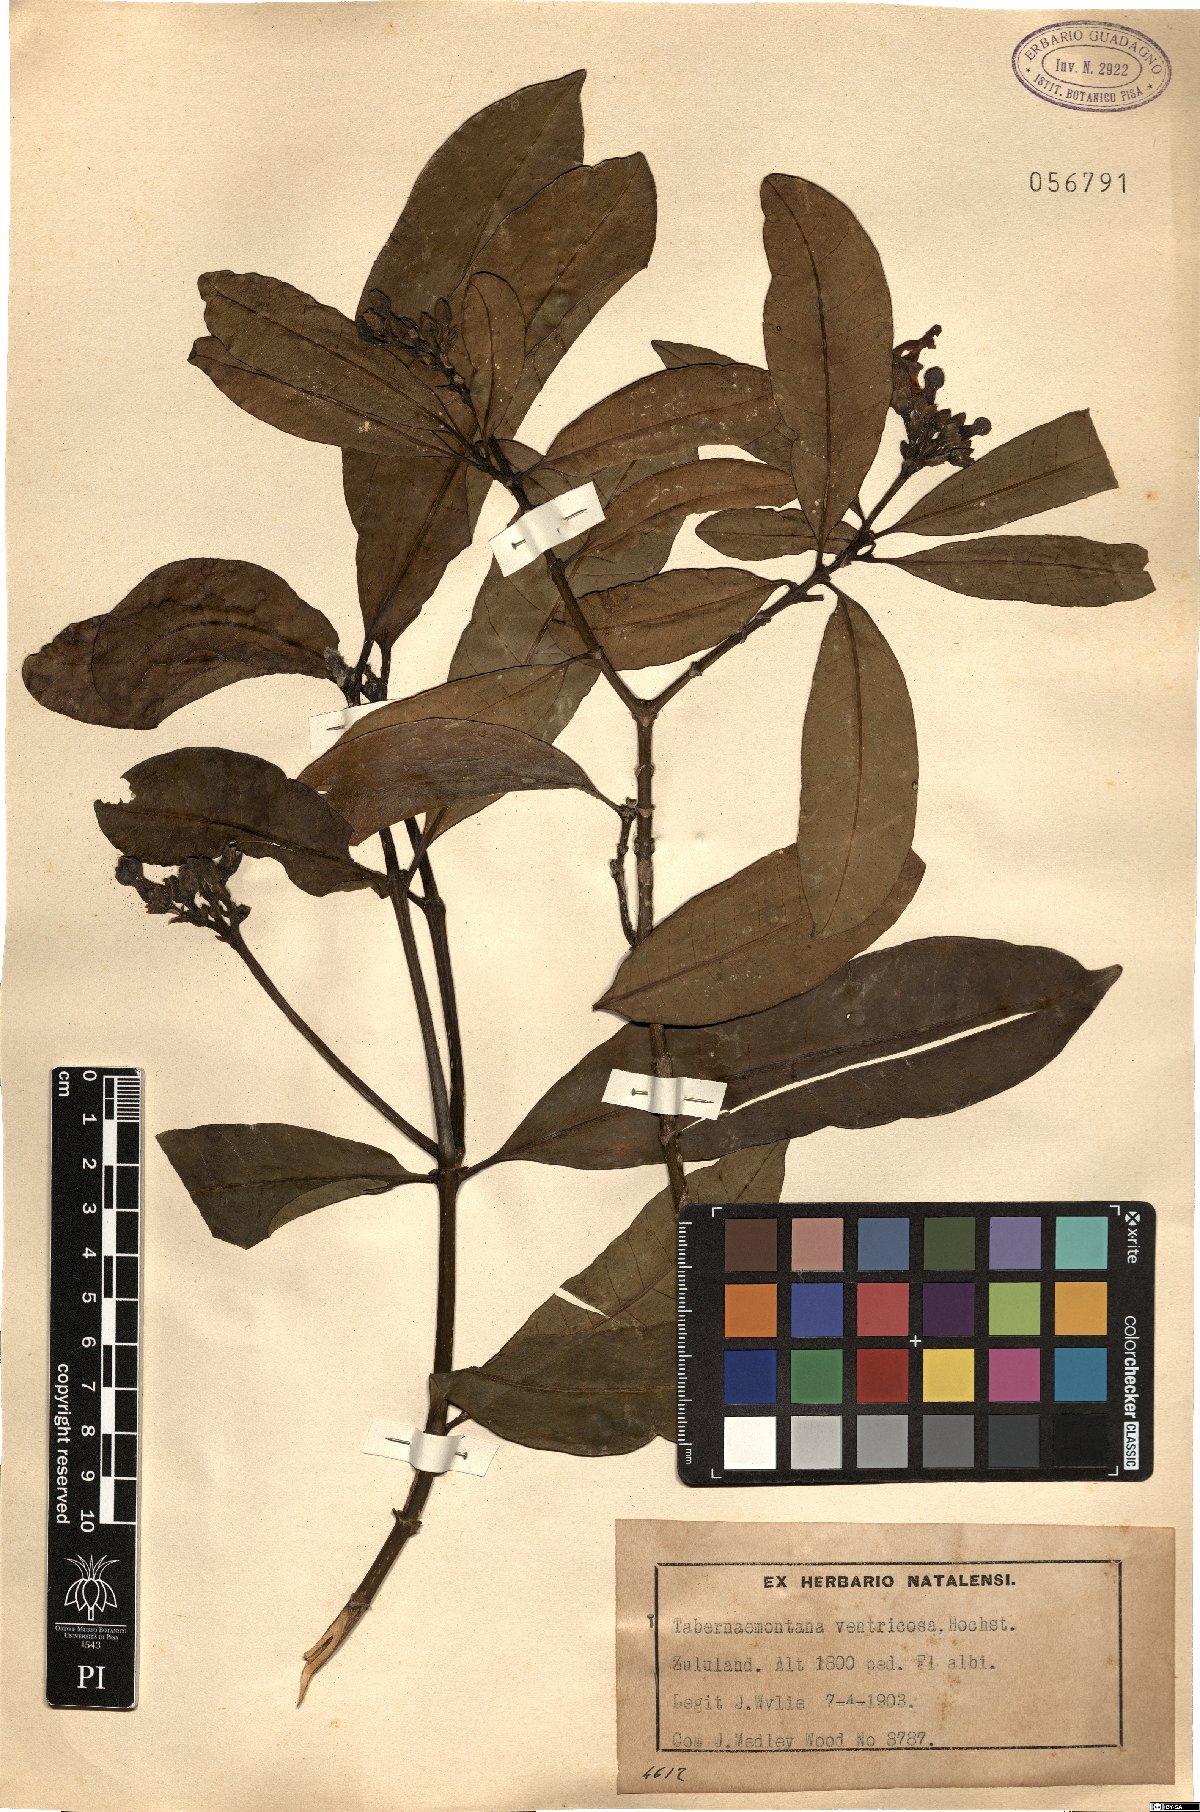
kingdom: Plantae
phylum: Tracheophyta
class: Magnoliopsida
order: Gentianales
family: Apocynaceae
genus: Tabernaemontana
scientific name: Tabernaemontana ventricosa
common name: Forest toad-tree
